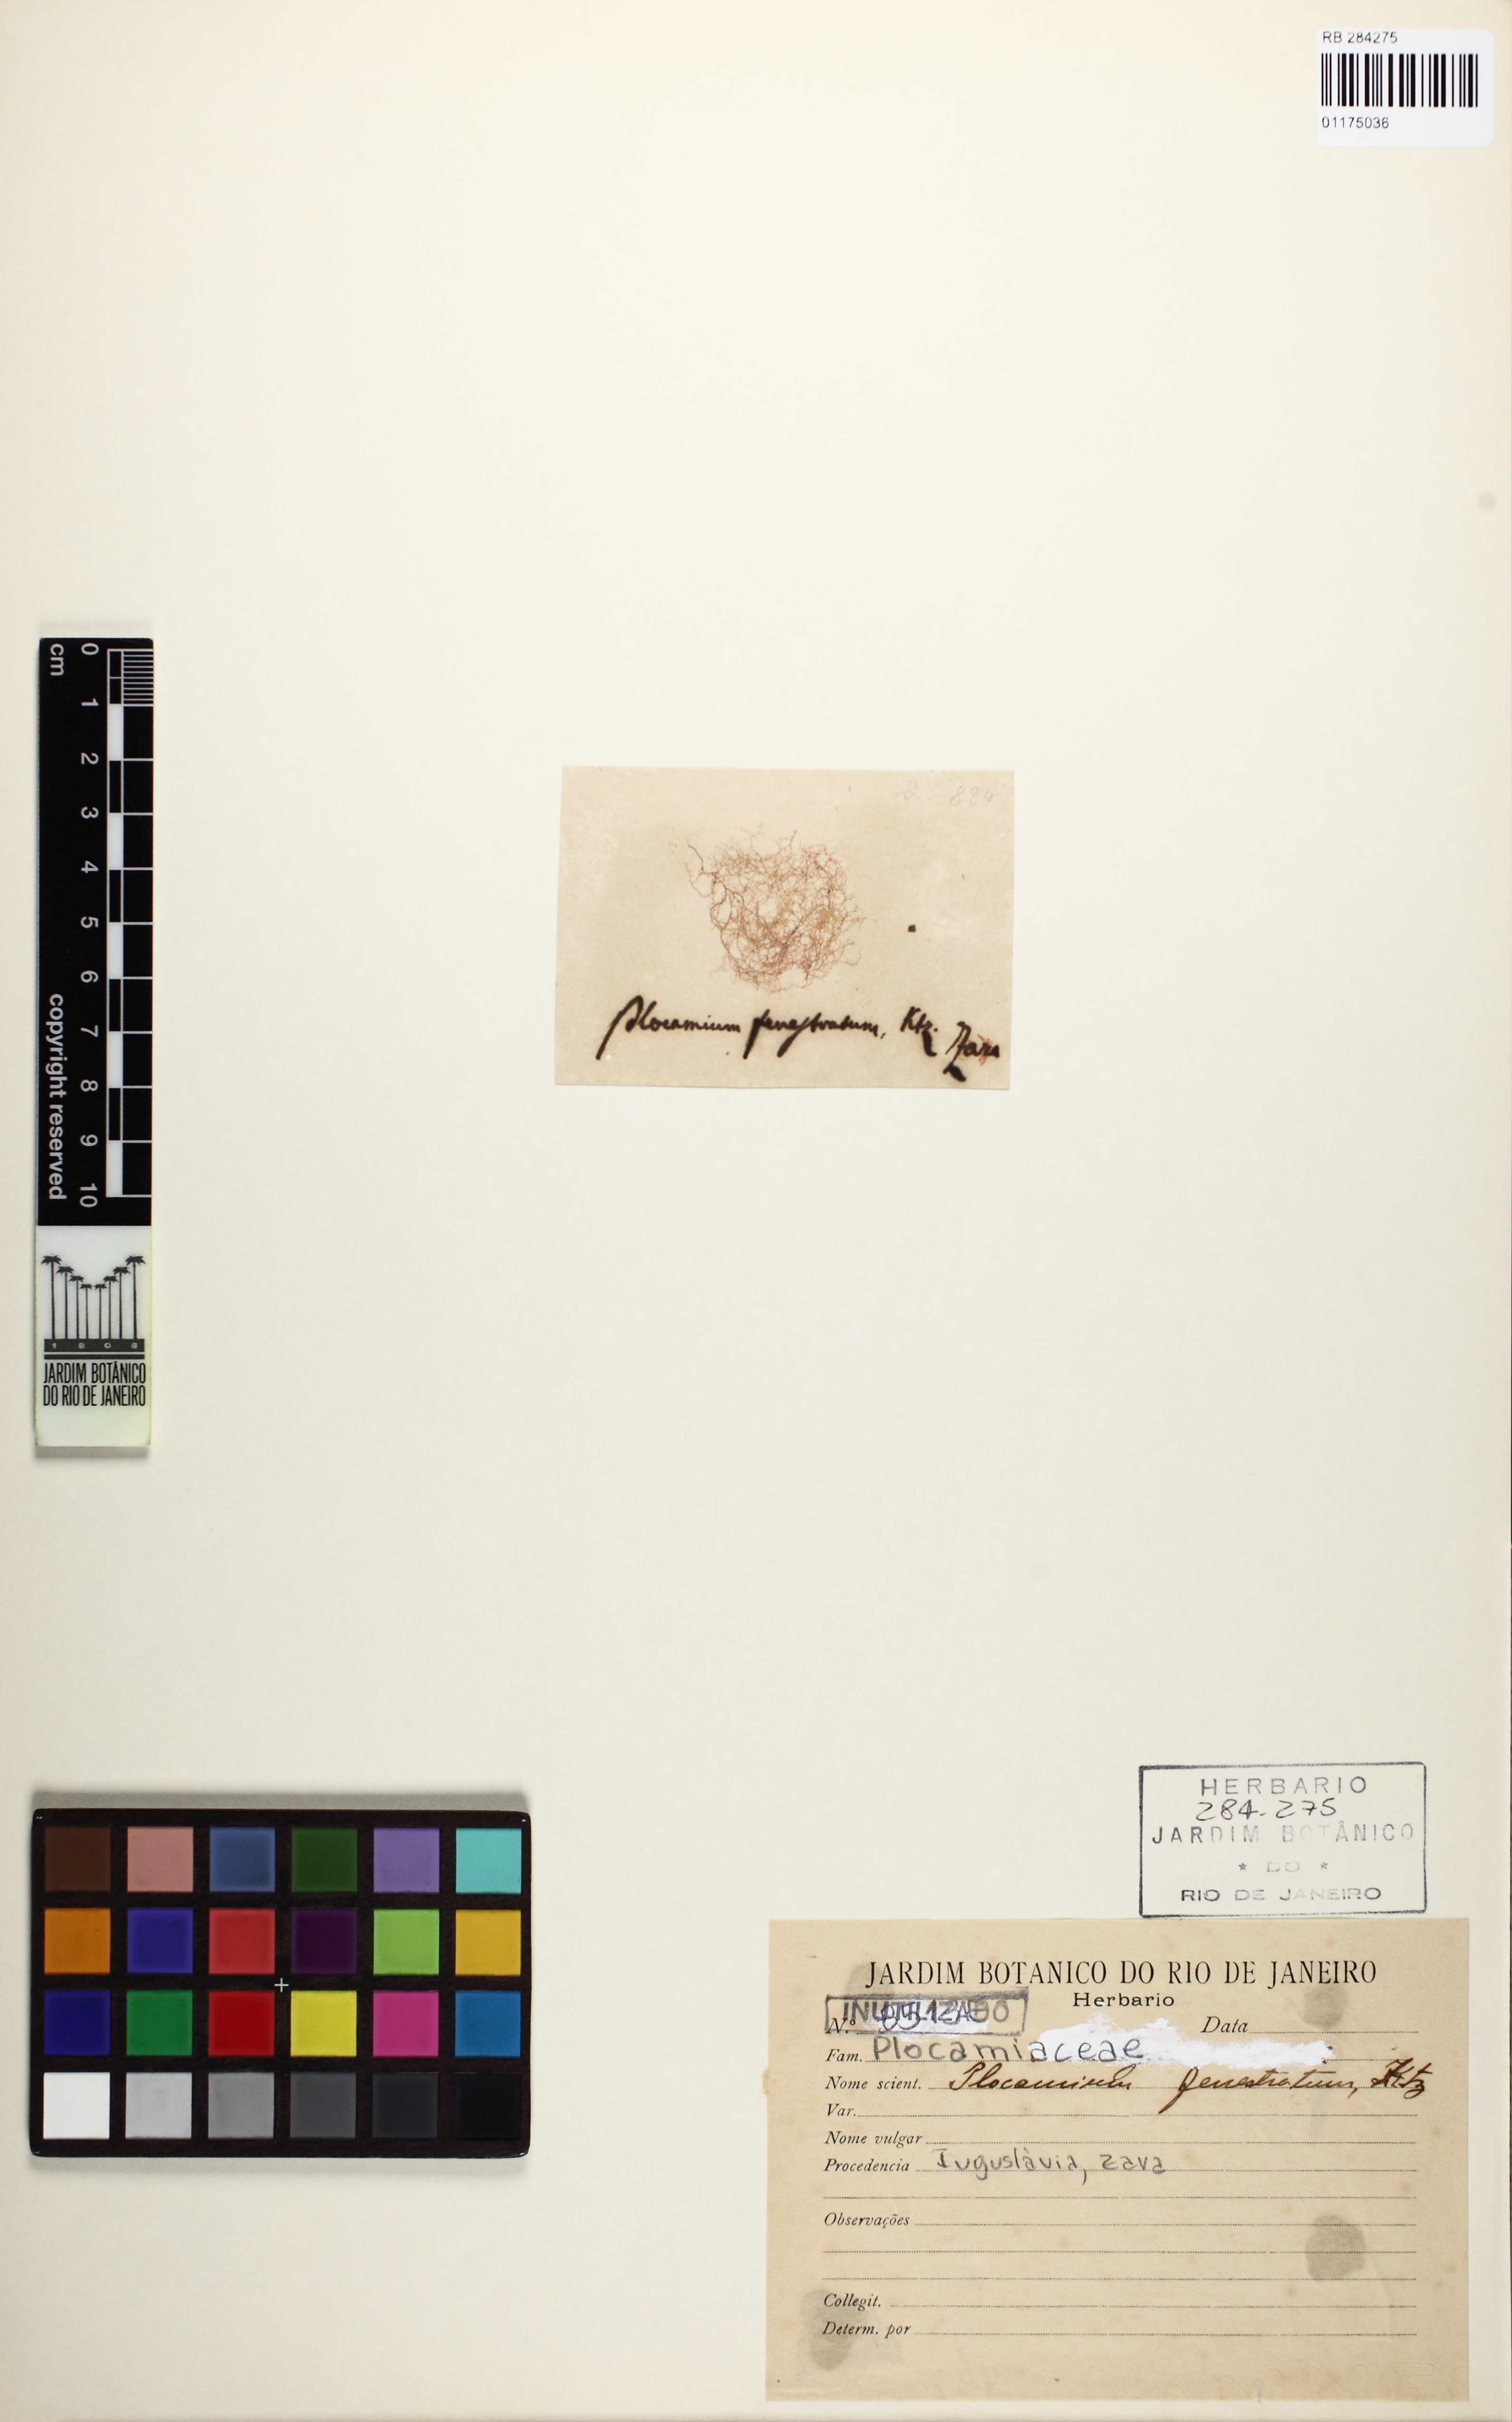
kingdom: Plantae
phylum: Rhodophyta
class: Florideophyceae
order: Plocamiales
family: Plocamiaceae
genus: Plocamium
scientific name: Plocamium fenestratum
